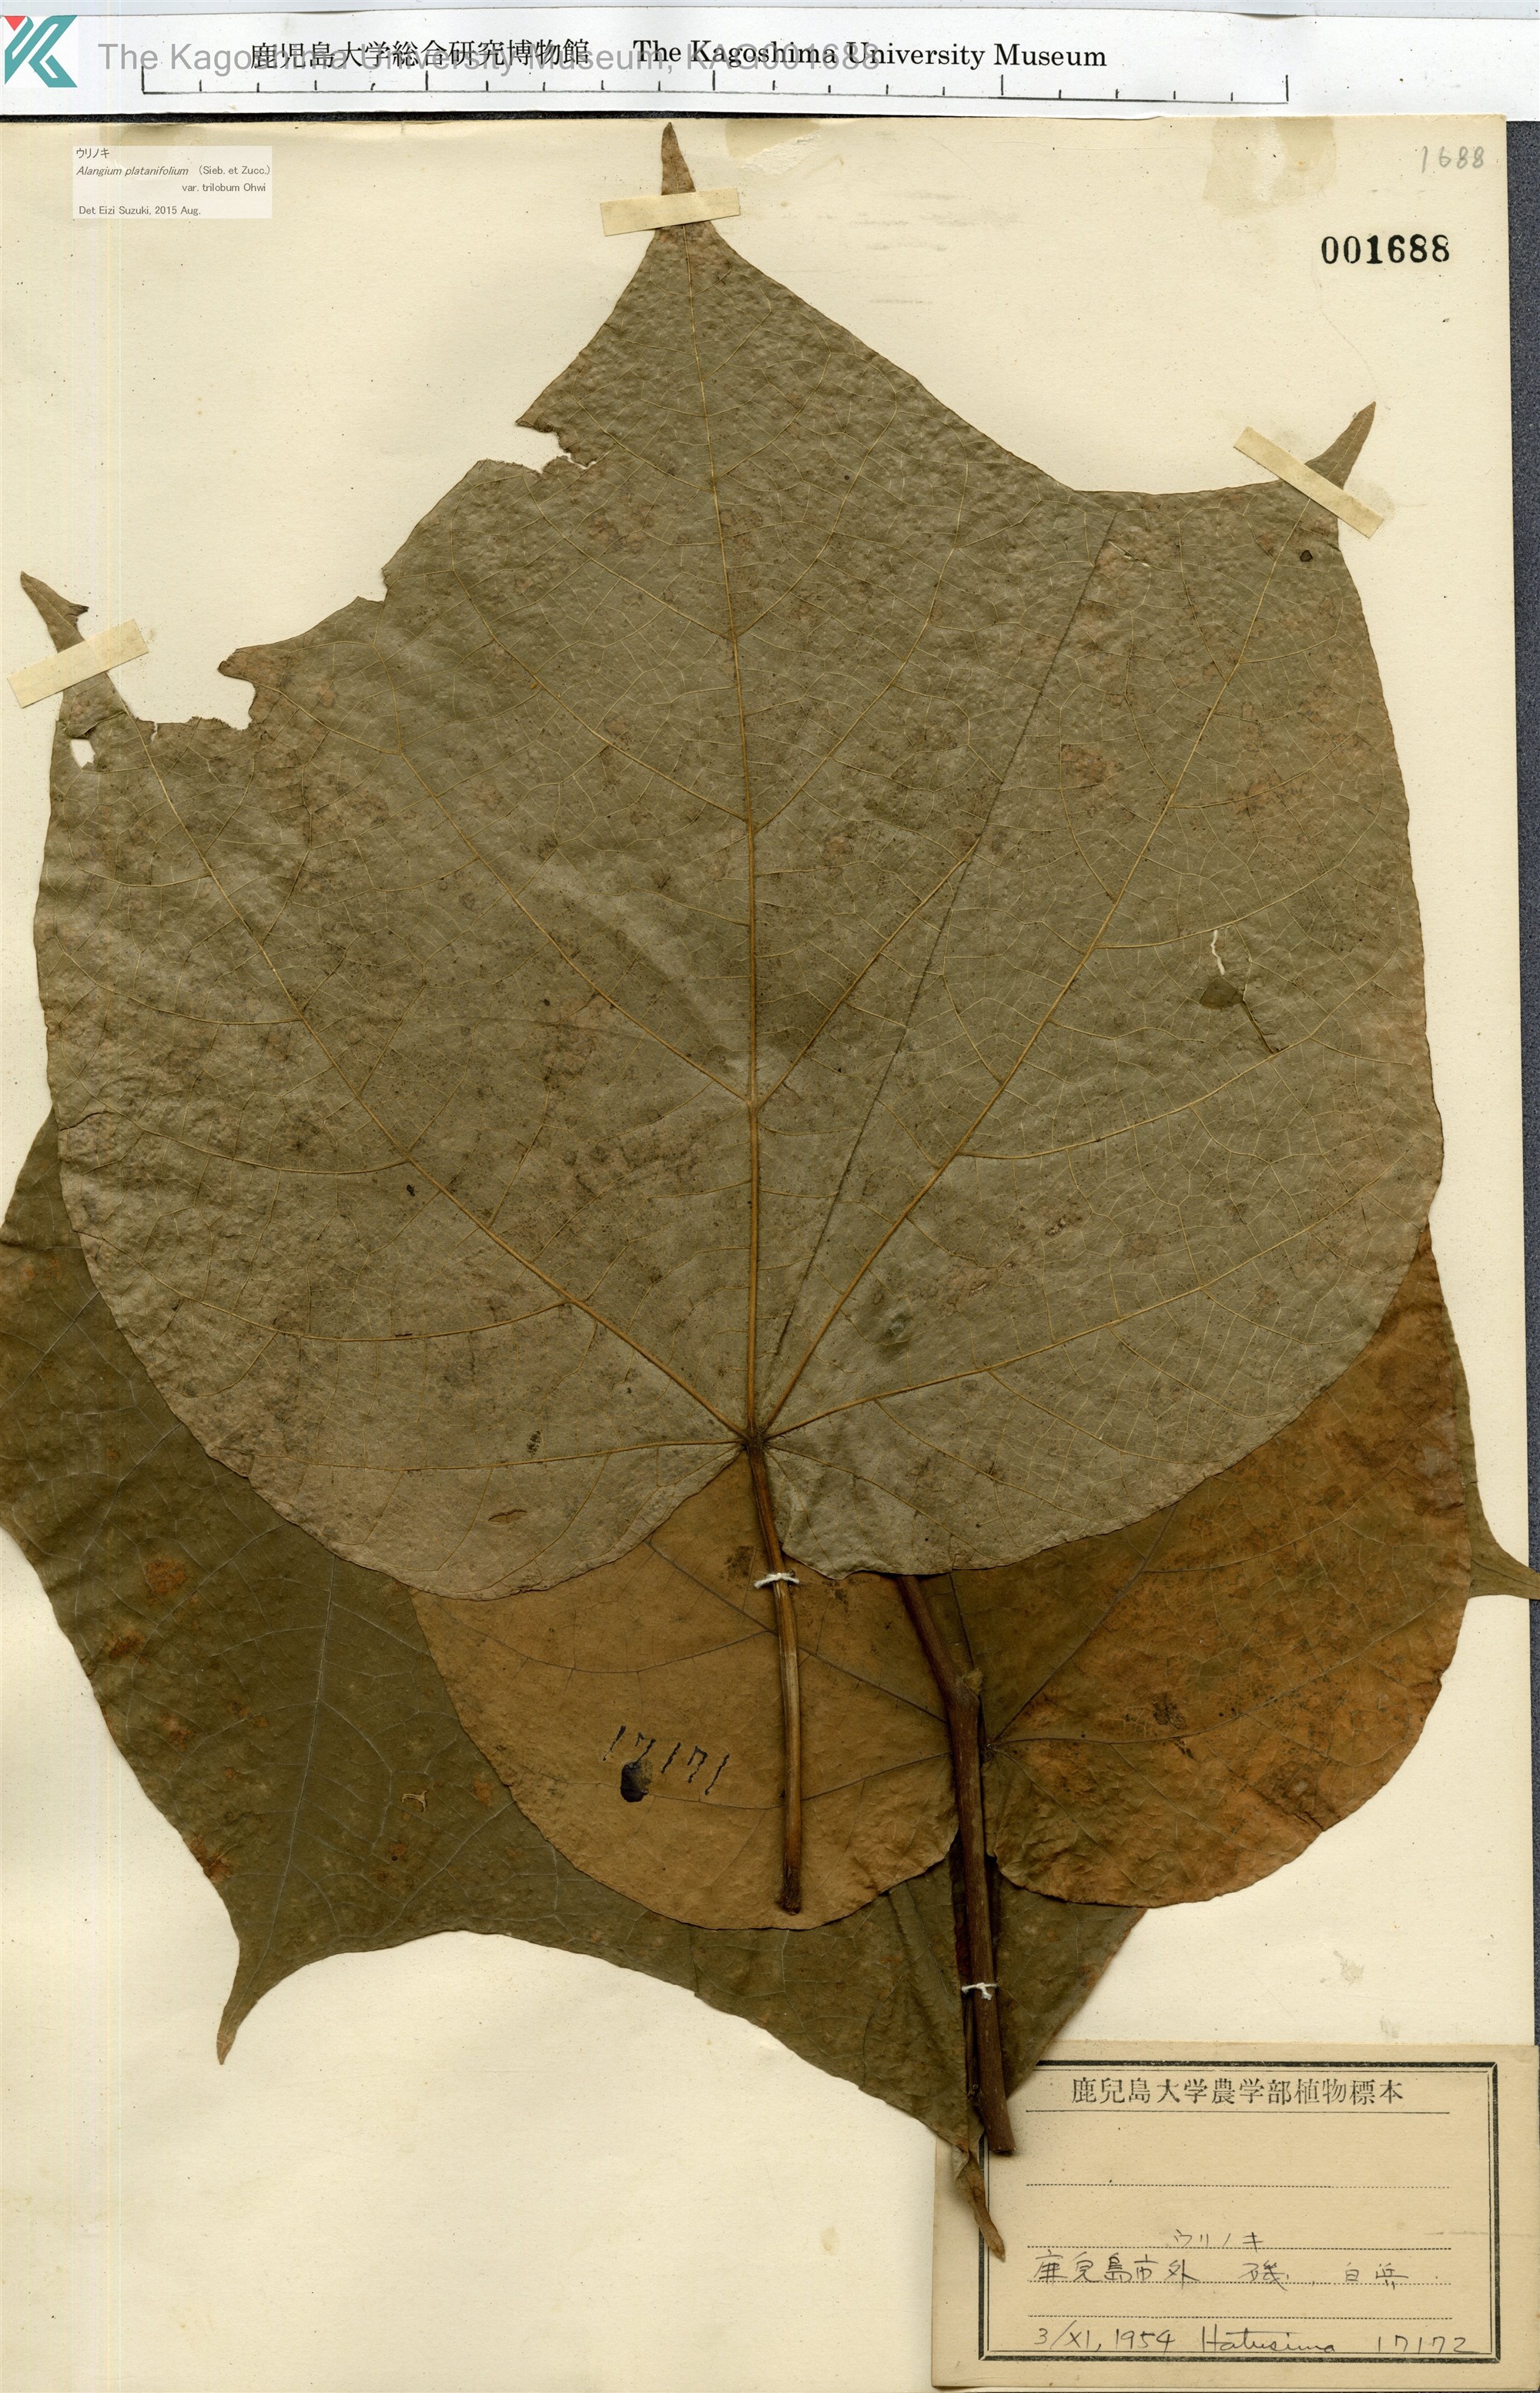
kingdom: Plantae
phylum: Tracheophyta
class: Magnoliopsida
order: Cornales
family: Cornaceae
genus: Alangium
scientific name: Alangium platanifolium
